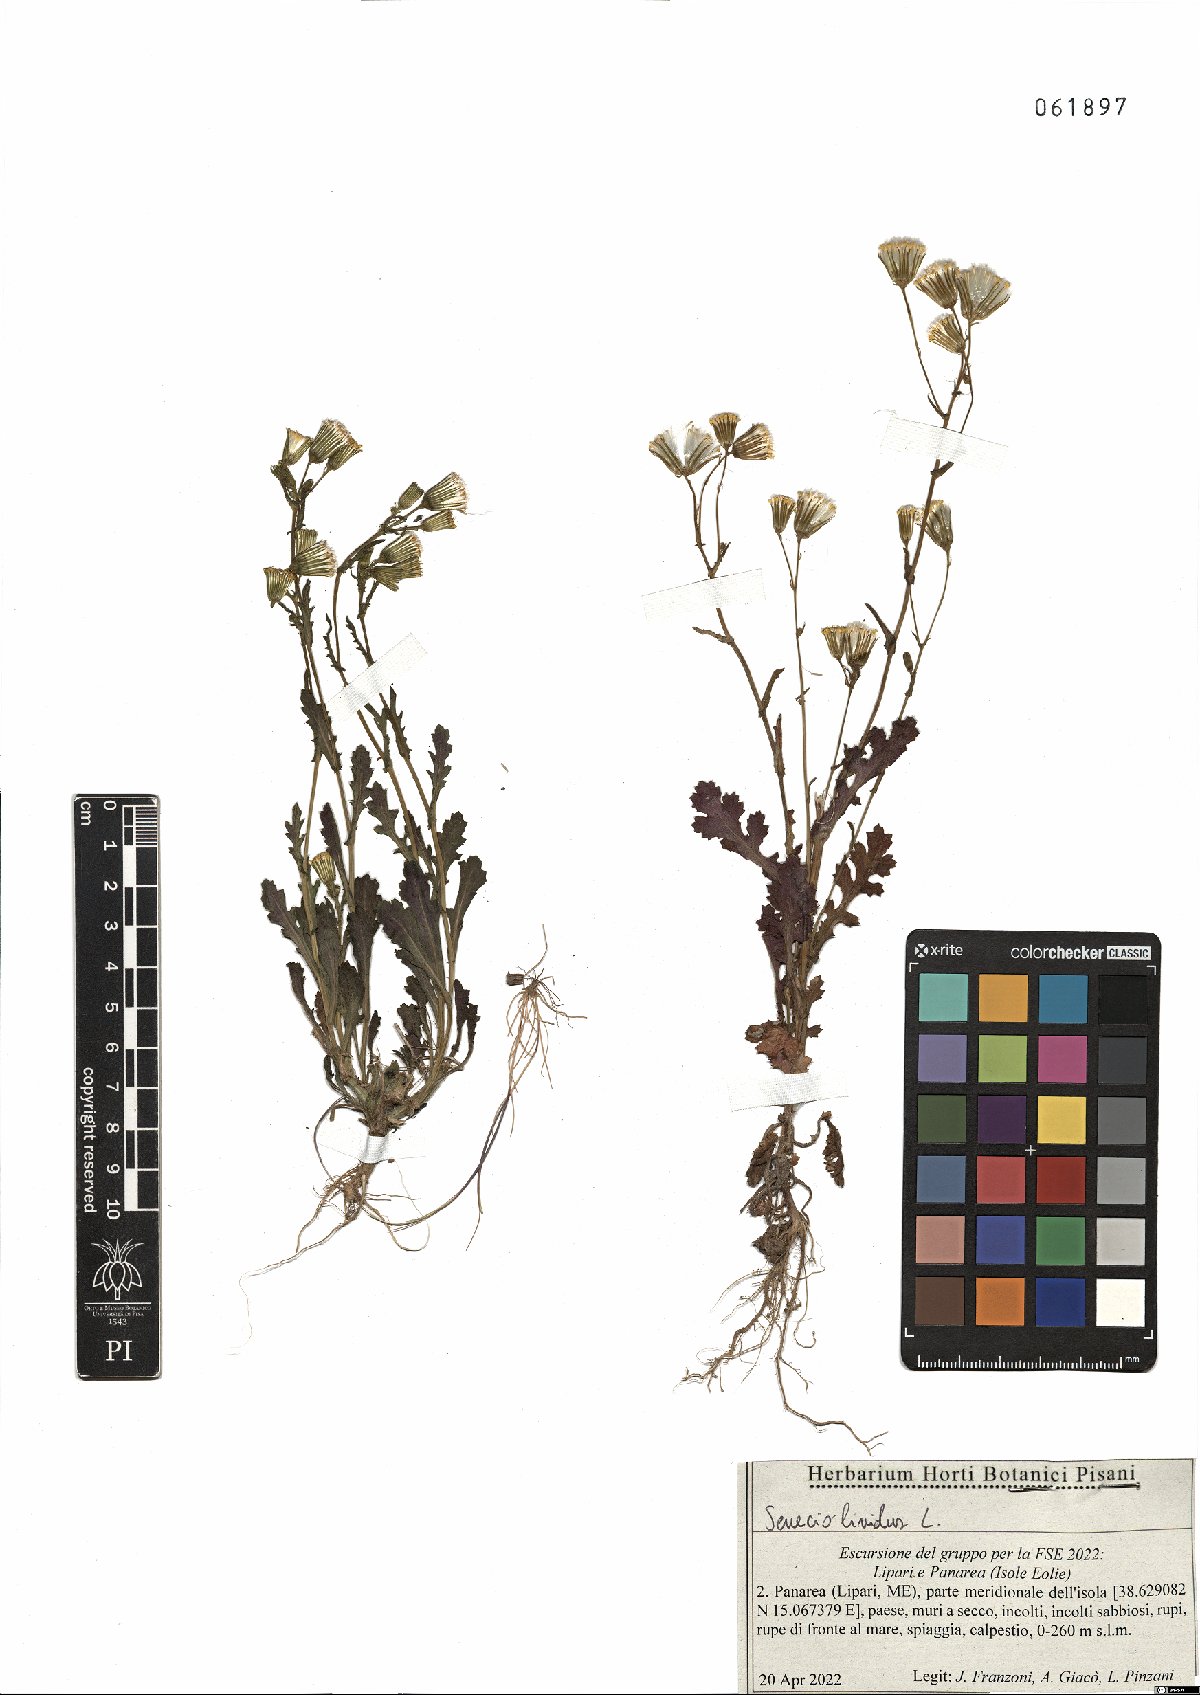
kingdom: Plantae
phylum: Tracheophyta
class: Magnoliopsida
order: Asterales
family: Asteraceae
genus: Senecio
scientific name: Senecio lividus
